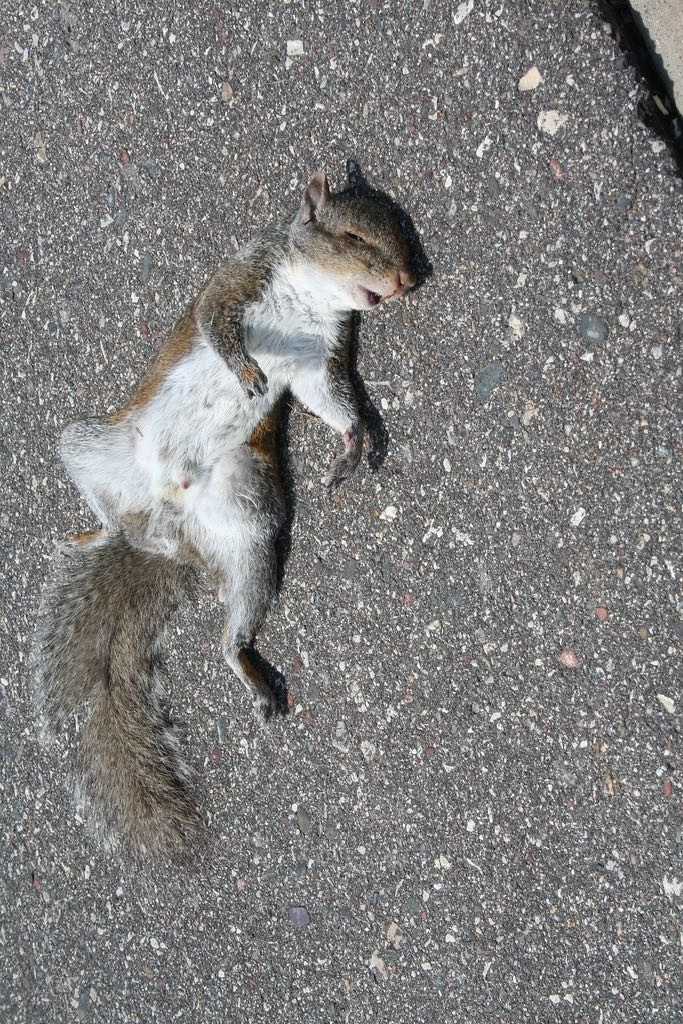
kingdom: Animalia
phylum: Chordata
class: Mammalia
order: Rodentia
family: Sciuridae
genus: Sciurus
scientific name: Sciurus carolinensis
